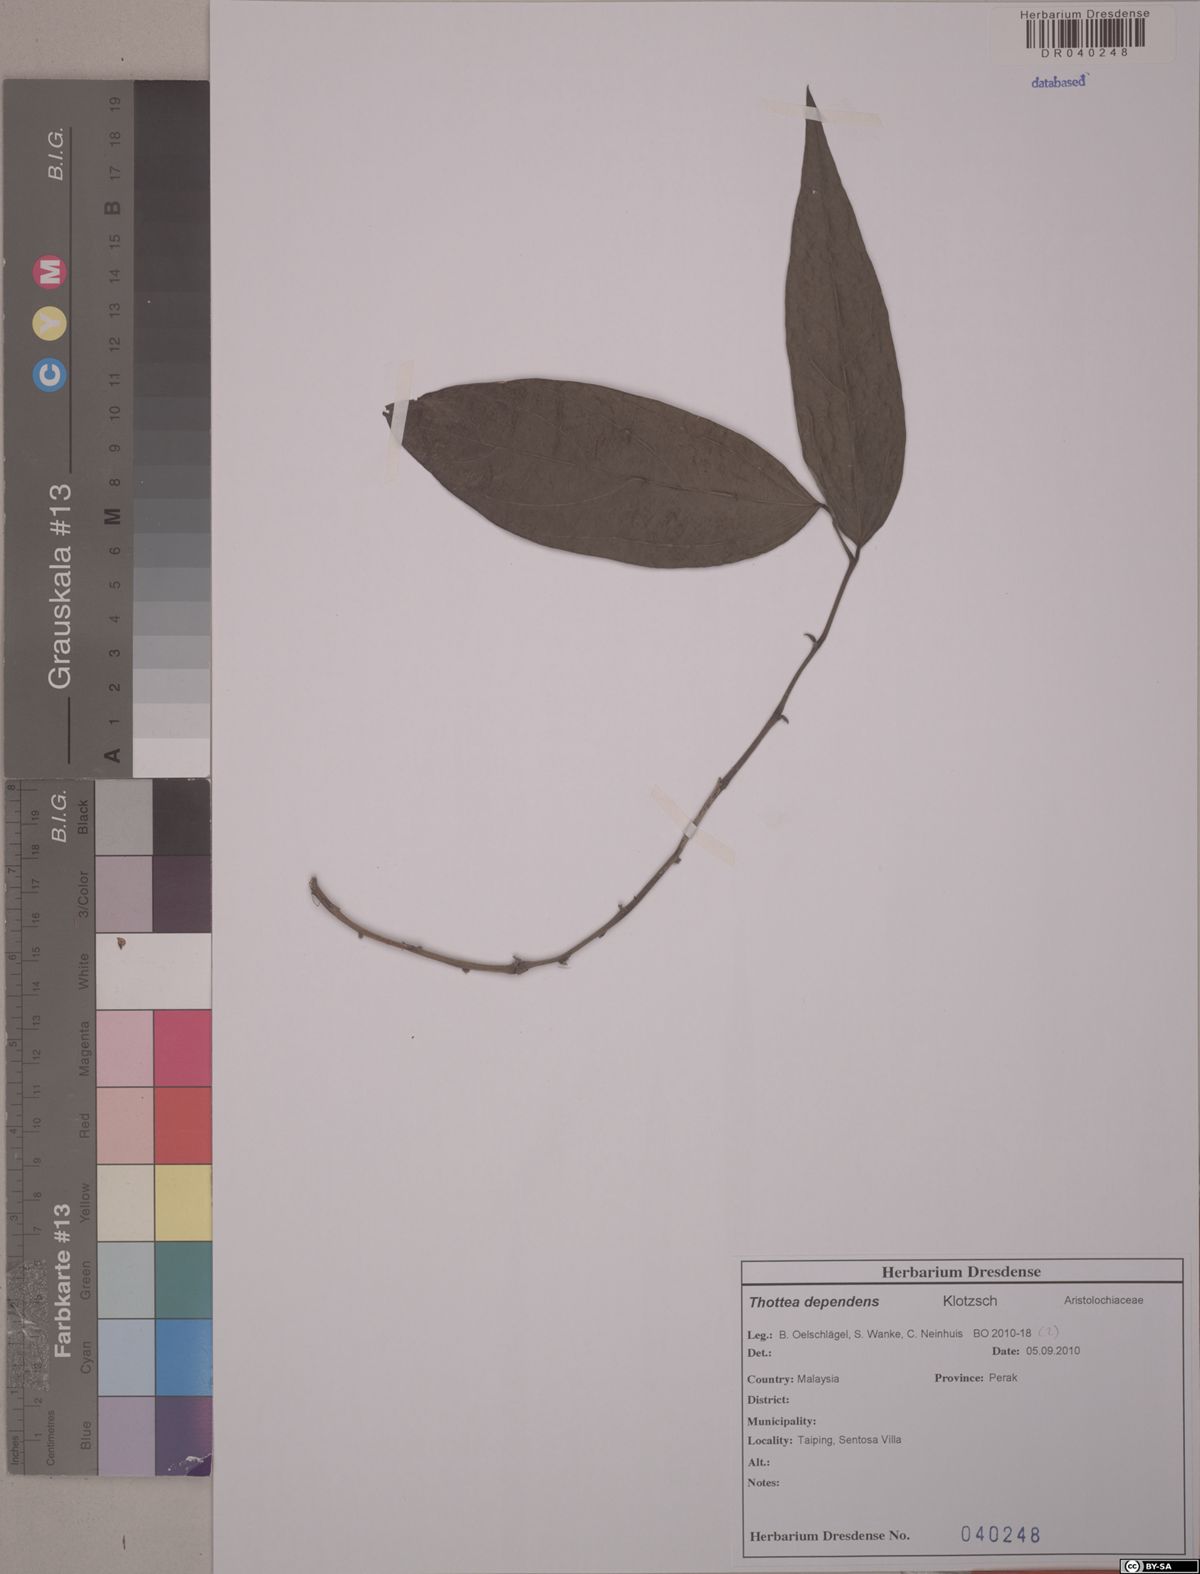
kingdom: Plantae
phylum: Tracheophyta
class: Magnoliopsida
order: Piperales
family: Aristolochiaceae
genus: Thottea
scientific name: Thottea dependens
